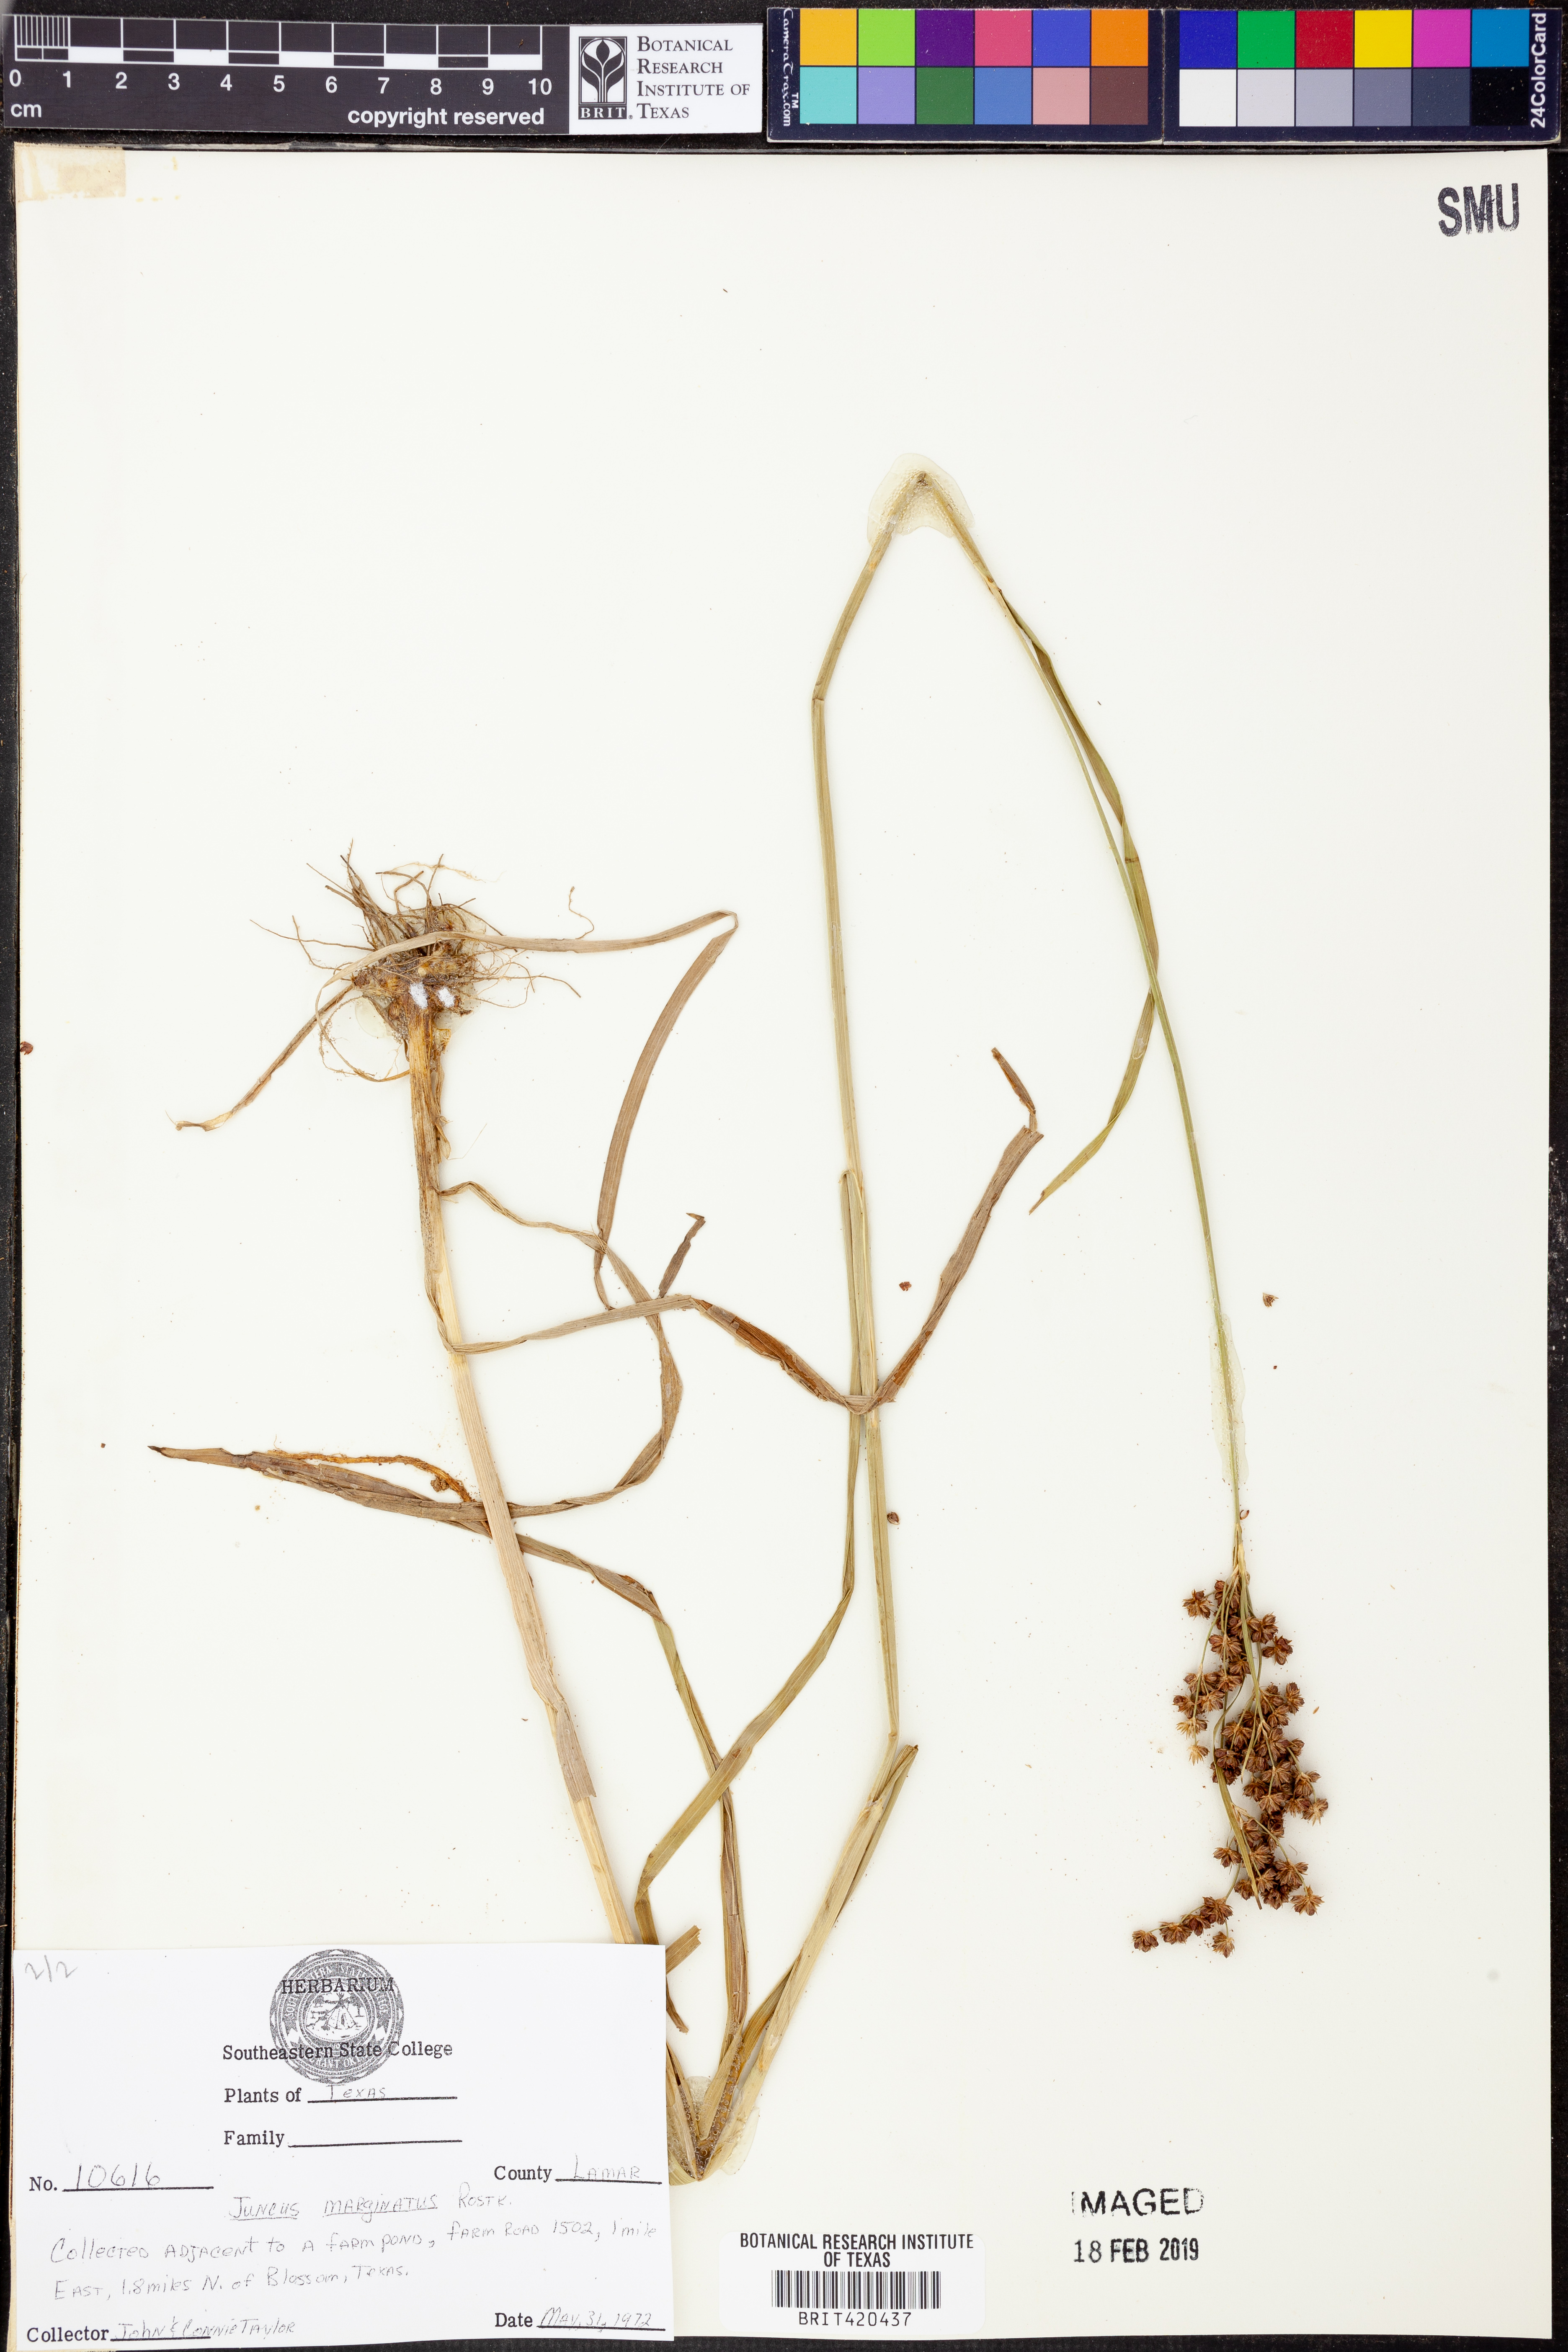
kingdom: Plantae
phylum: Tracheophyta
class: Liliopsida
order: Poales
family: Juncaceae
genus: Juncus
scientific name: Juncus marginatus
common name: Grass-leaf rush
